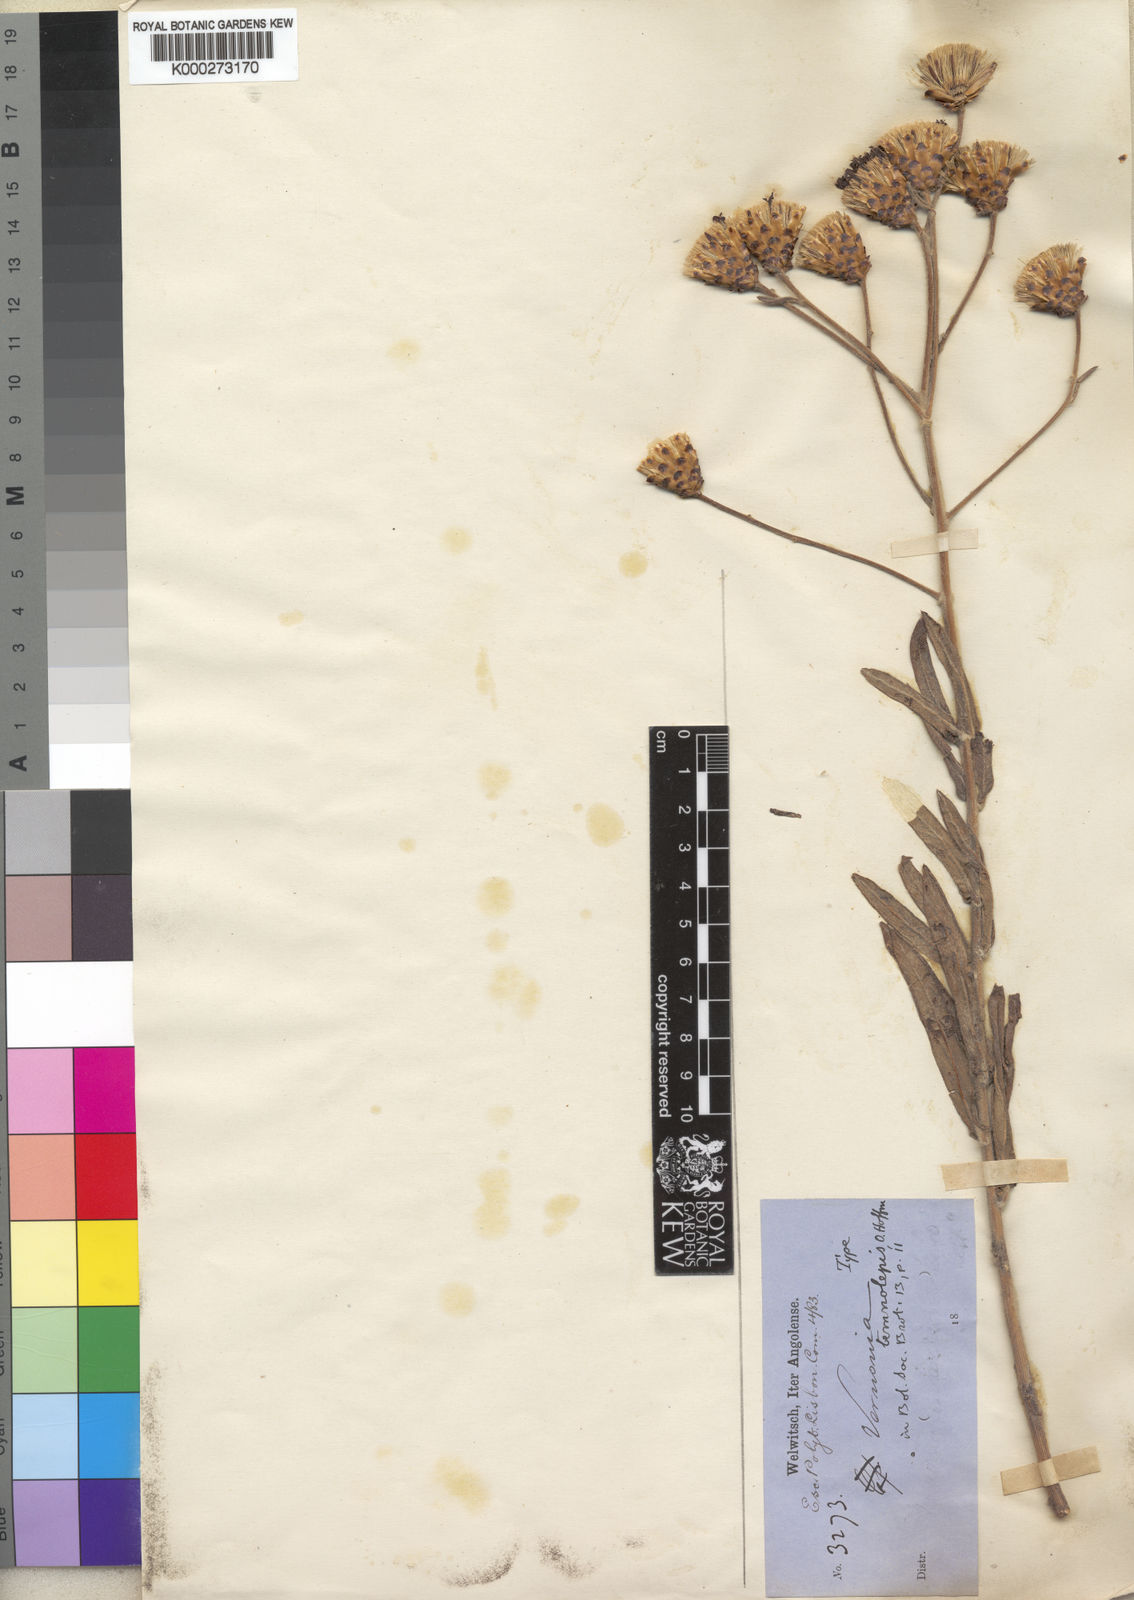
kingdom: Plantae
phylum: Tracheophyta
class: Magnoliopsida
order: Asterales
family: Asteraceae
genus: Vernonia
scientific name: Vernonia temnolepis
